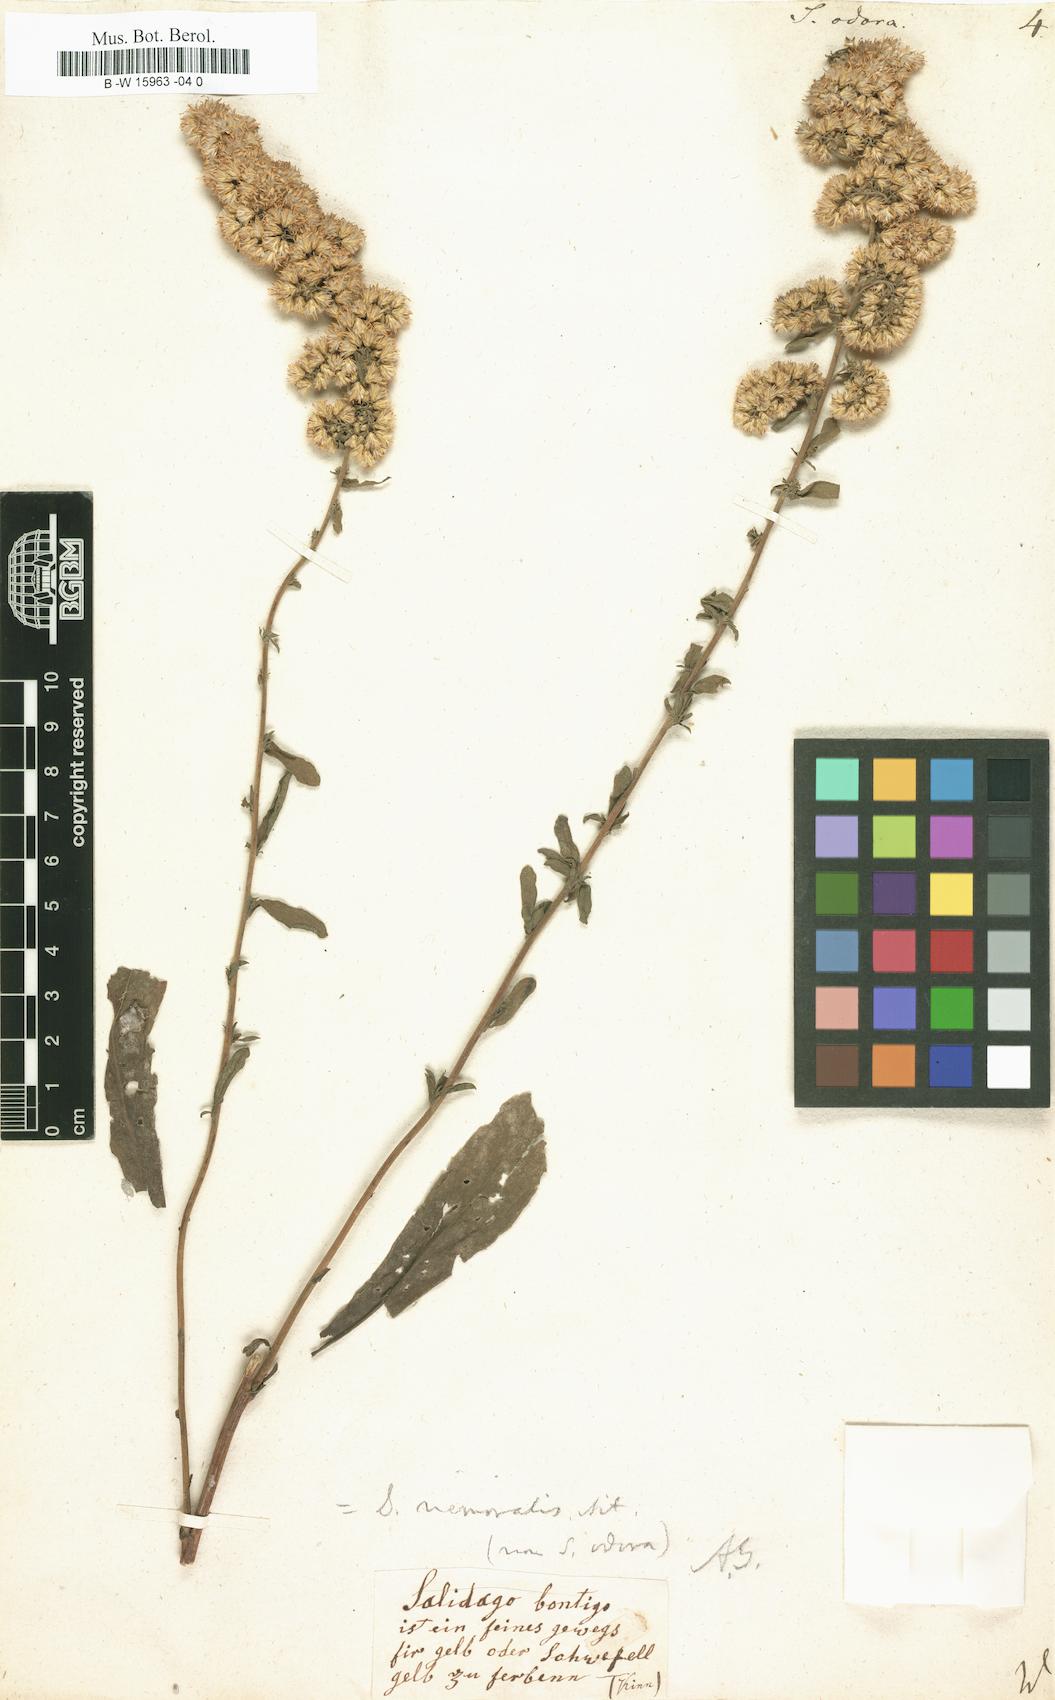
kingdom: Plantae
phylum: Tracheophyta
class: Magnoliopsida
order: Asterales
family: Asteraceae
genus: Solidago
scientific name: Solidago odora
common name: Anise-scented goldenrod
